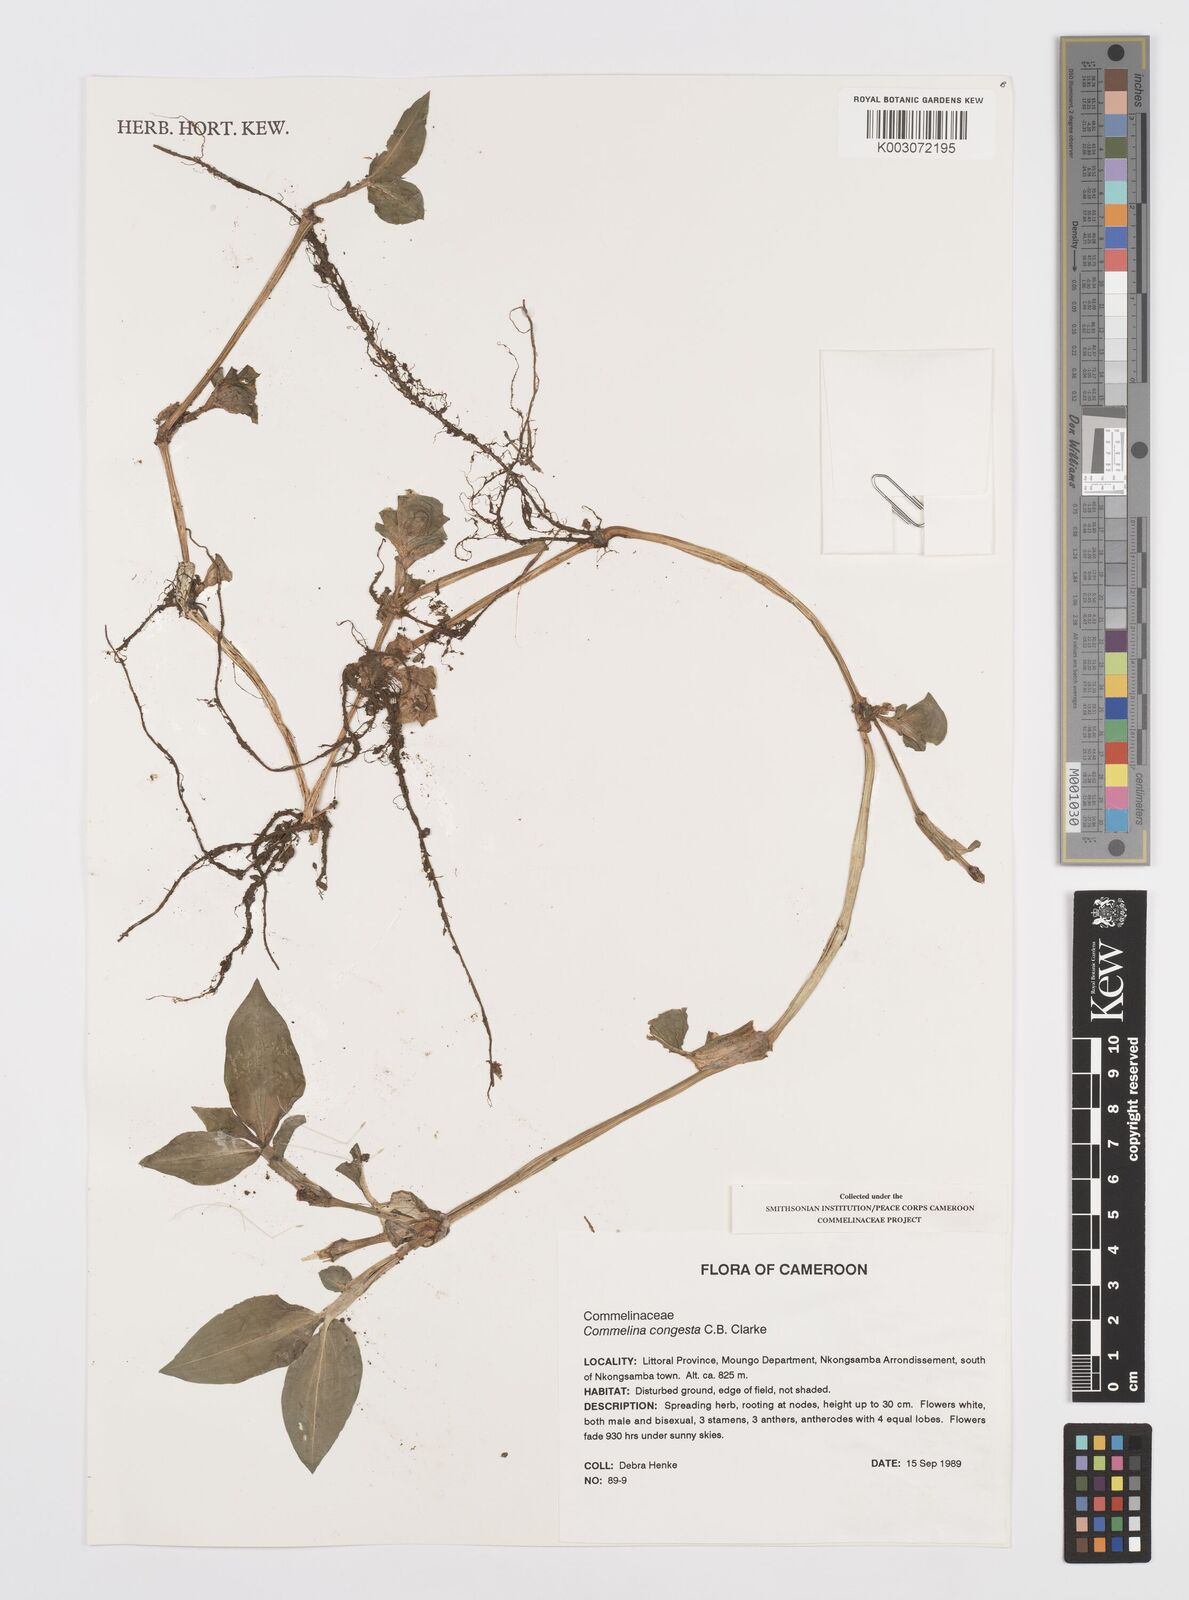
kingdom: Plantae
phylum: Tracheophyta
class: Liliopsida
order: Commelinales
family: Commelinaceae
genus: Commelina
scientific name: Commelina congesta
